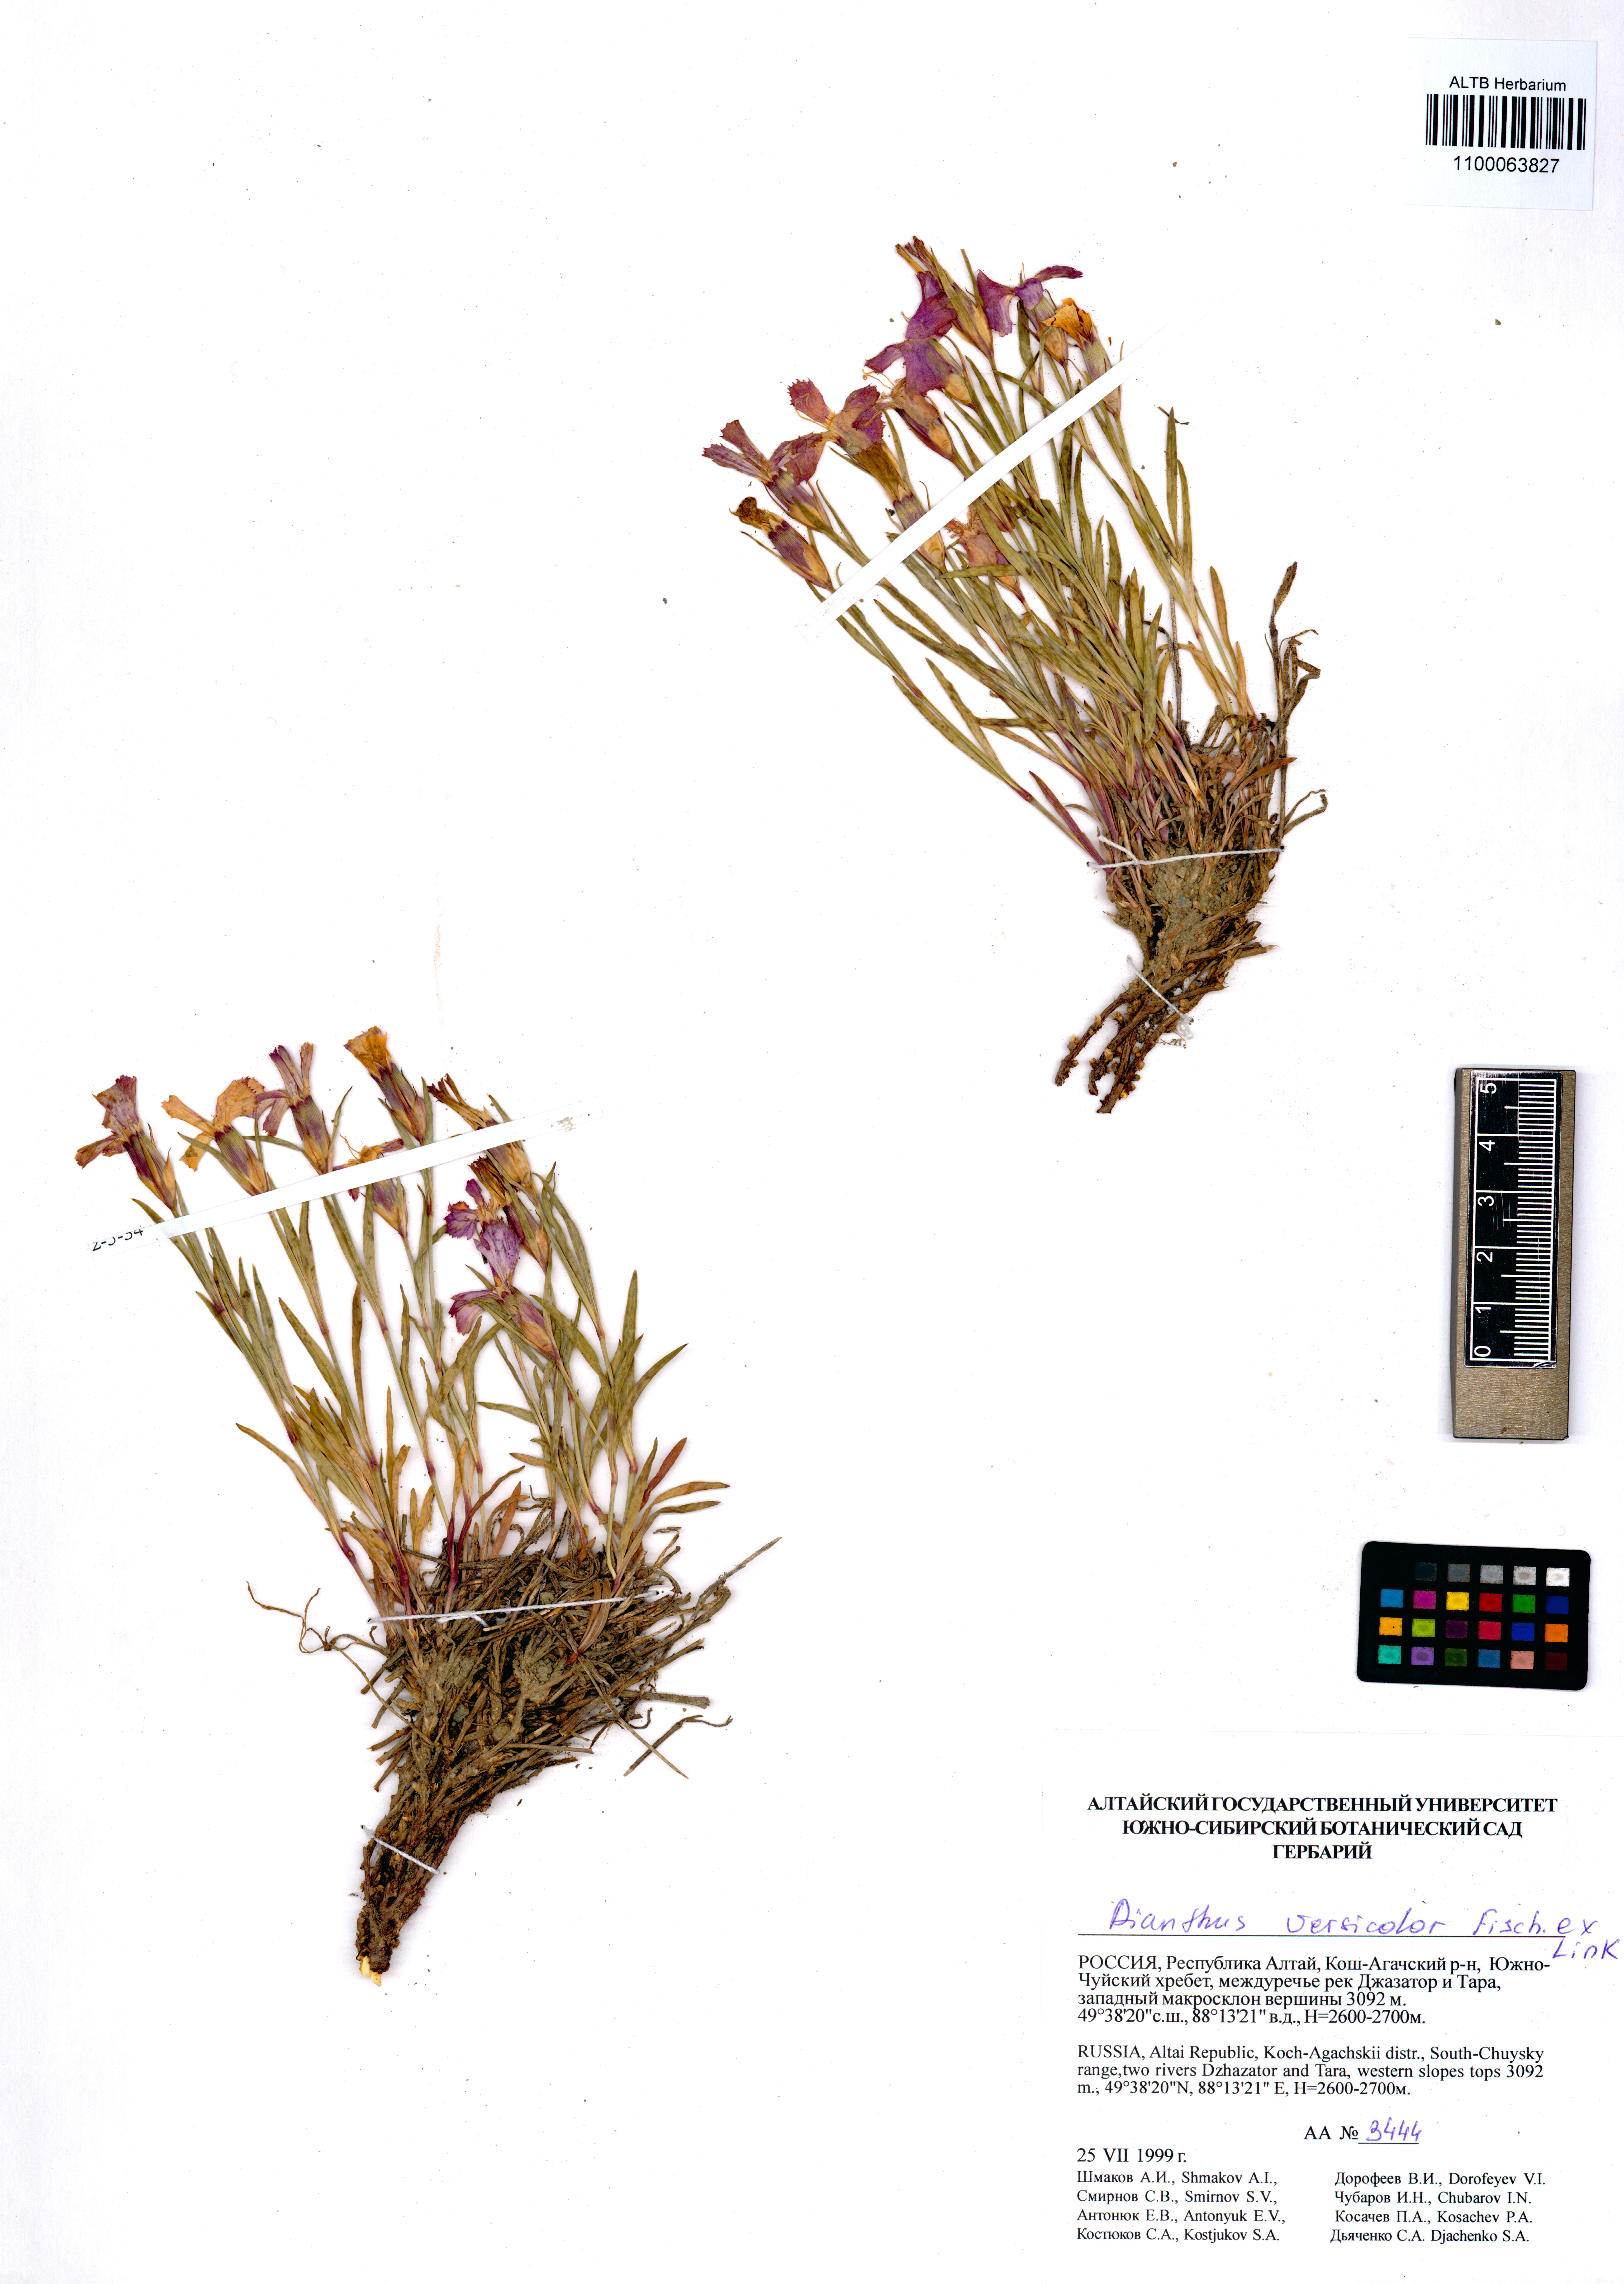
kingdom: Plantae
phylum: Tracheophyta
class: Magnoliopsida
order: Caryophyllales
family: Caryophyllaceae
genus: Dianthus
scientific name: Dianthus chinensis
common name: Rainbow pink
